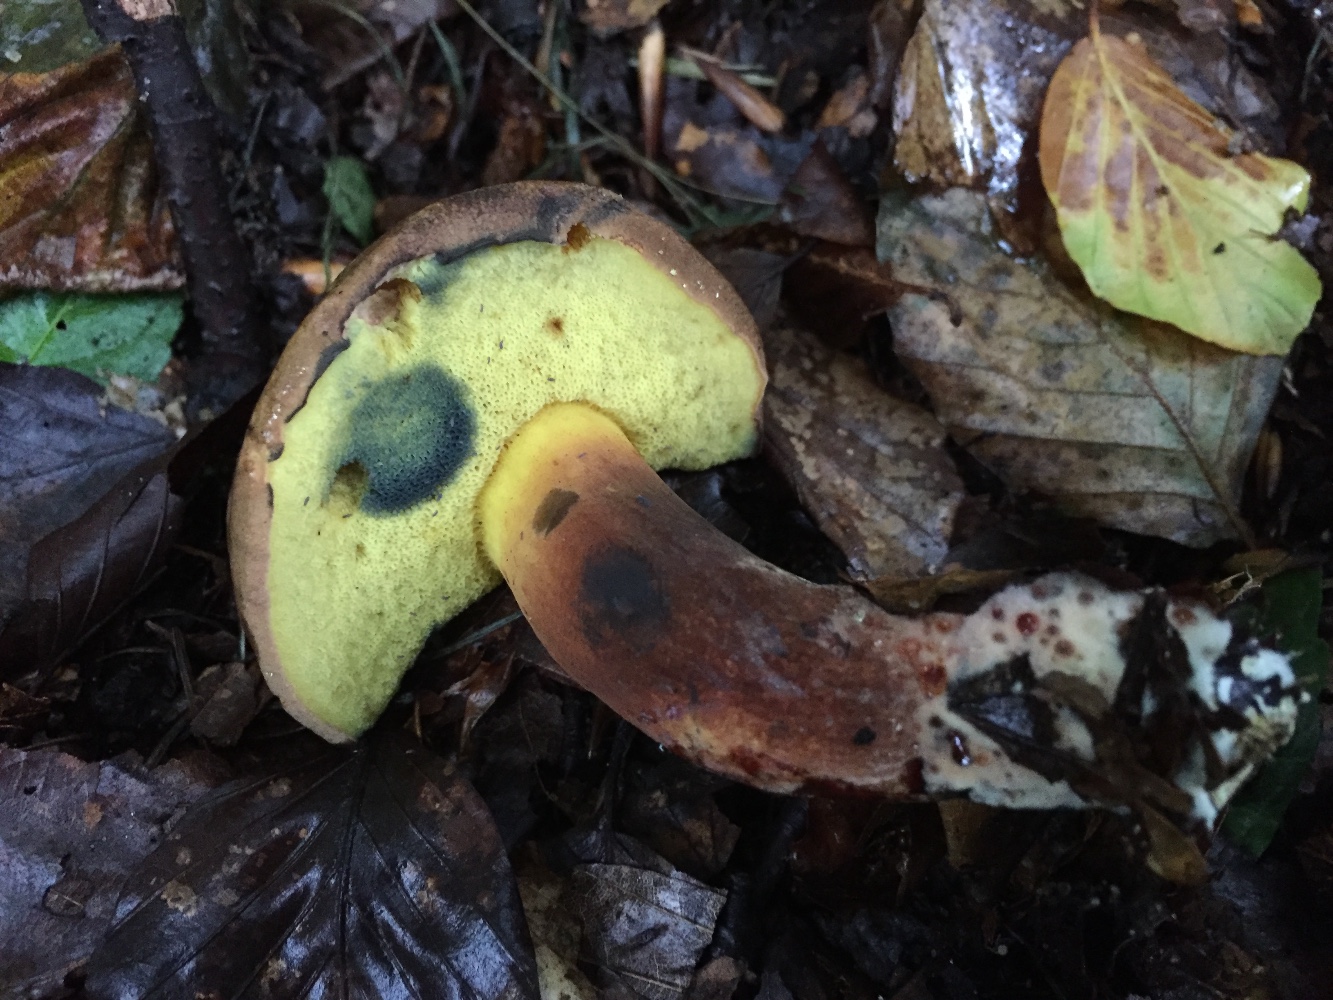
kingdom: Fungi
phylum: Basidiomycota
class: Agaricomycetes
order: Boletales
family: Boletaceae
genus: Cyanoboletus
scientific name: Cyanoboletus pulverulentus
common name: sortblånende rørhat
